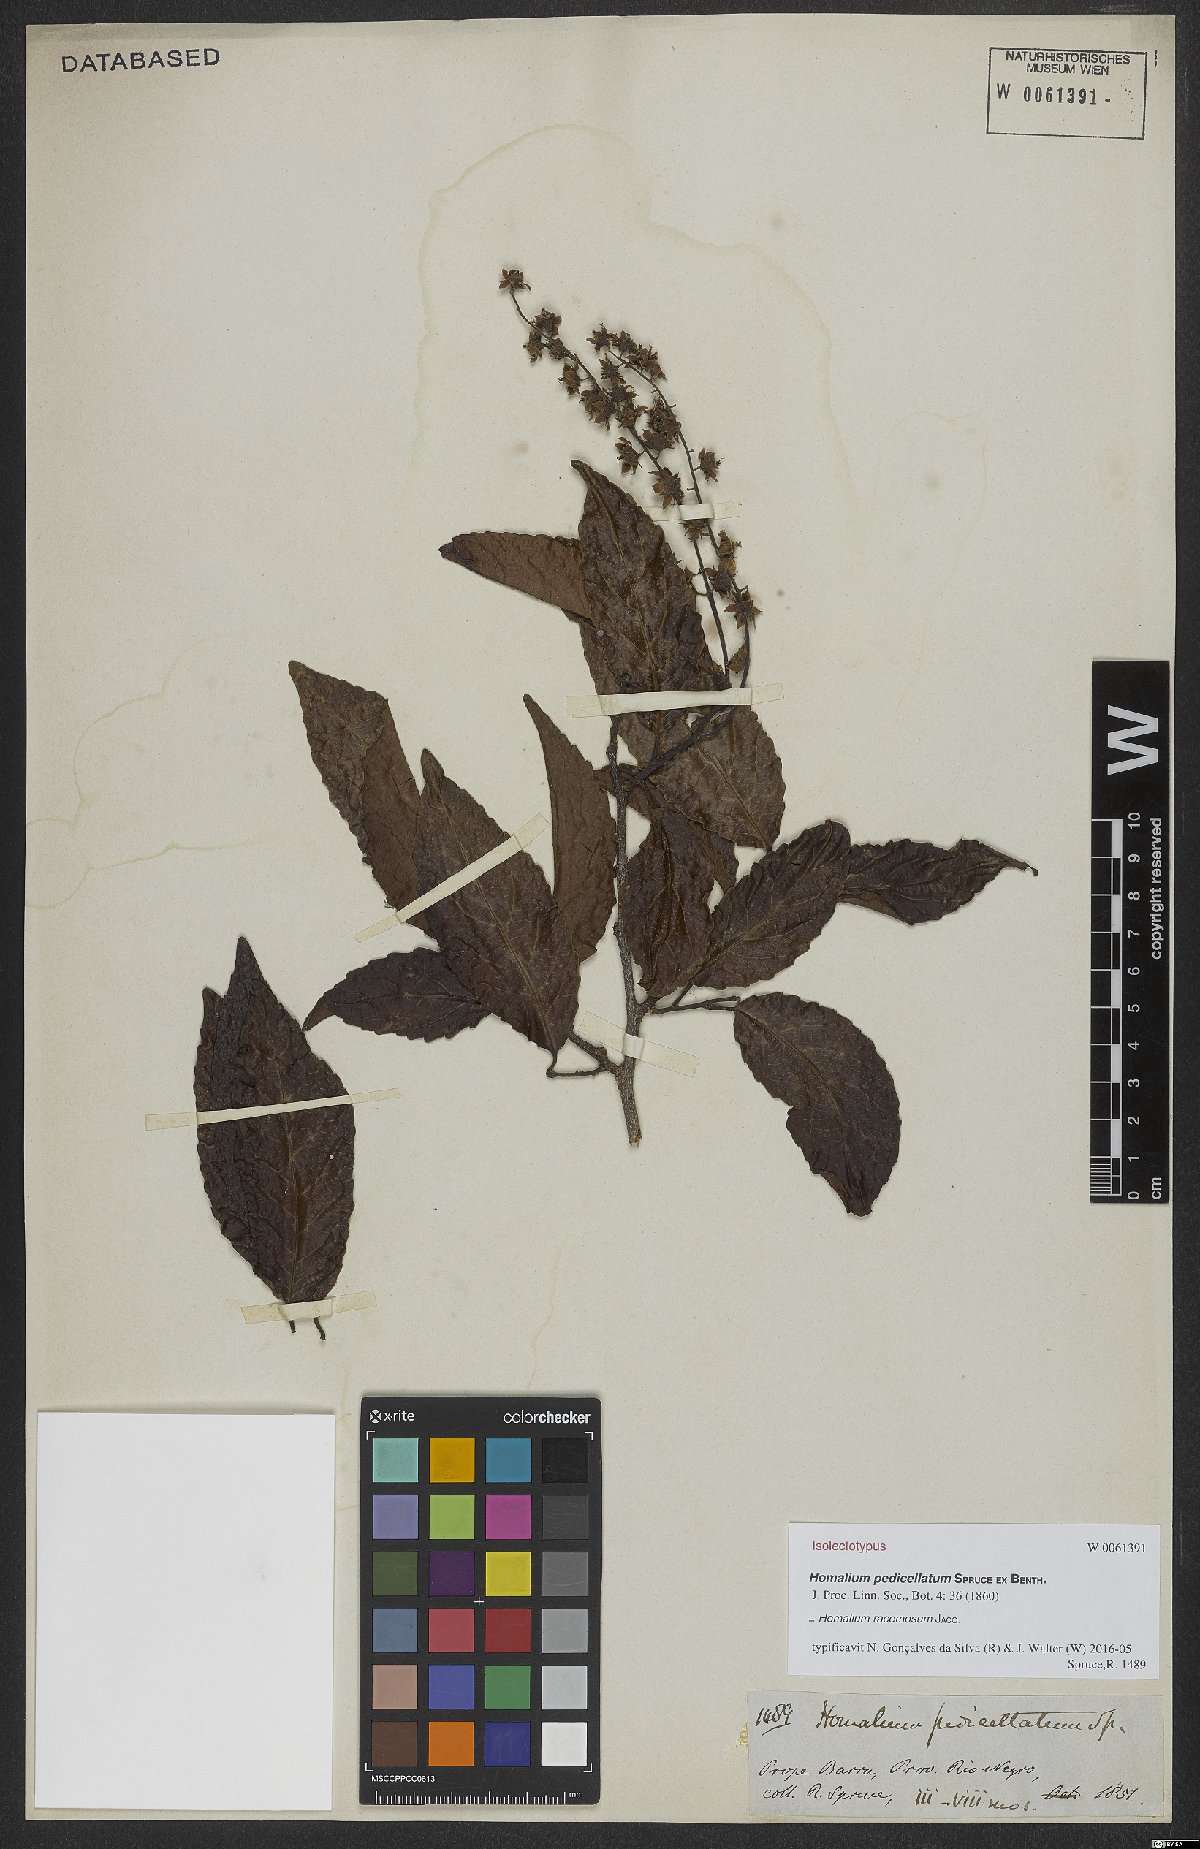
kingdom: Plantae
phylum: Tracheophyta
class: Magnoliopsida
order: Malpighiales
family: Salicaceae
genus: Homalium
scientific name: Homalium racemosum
